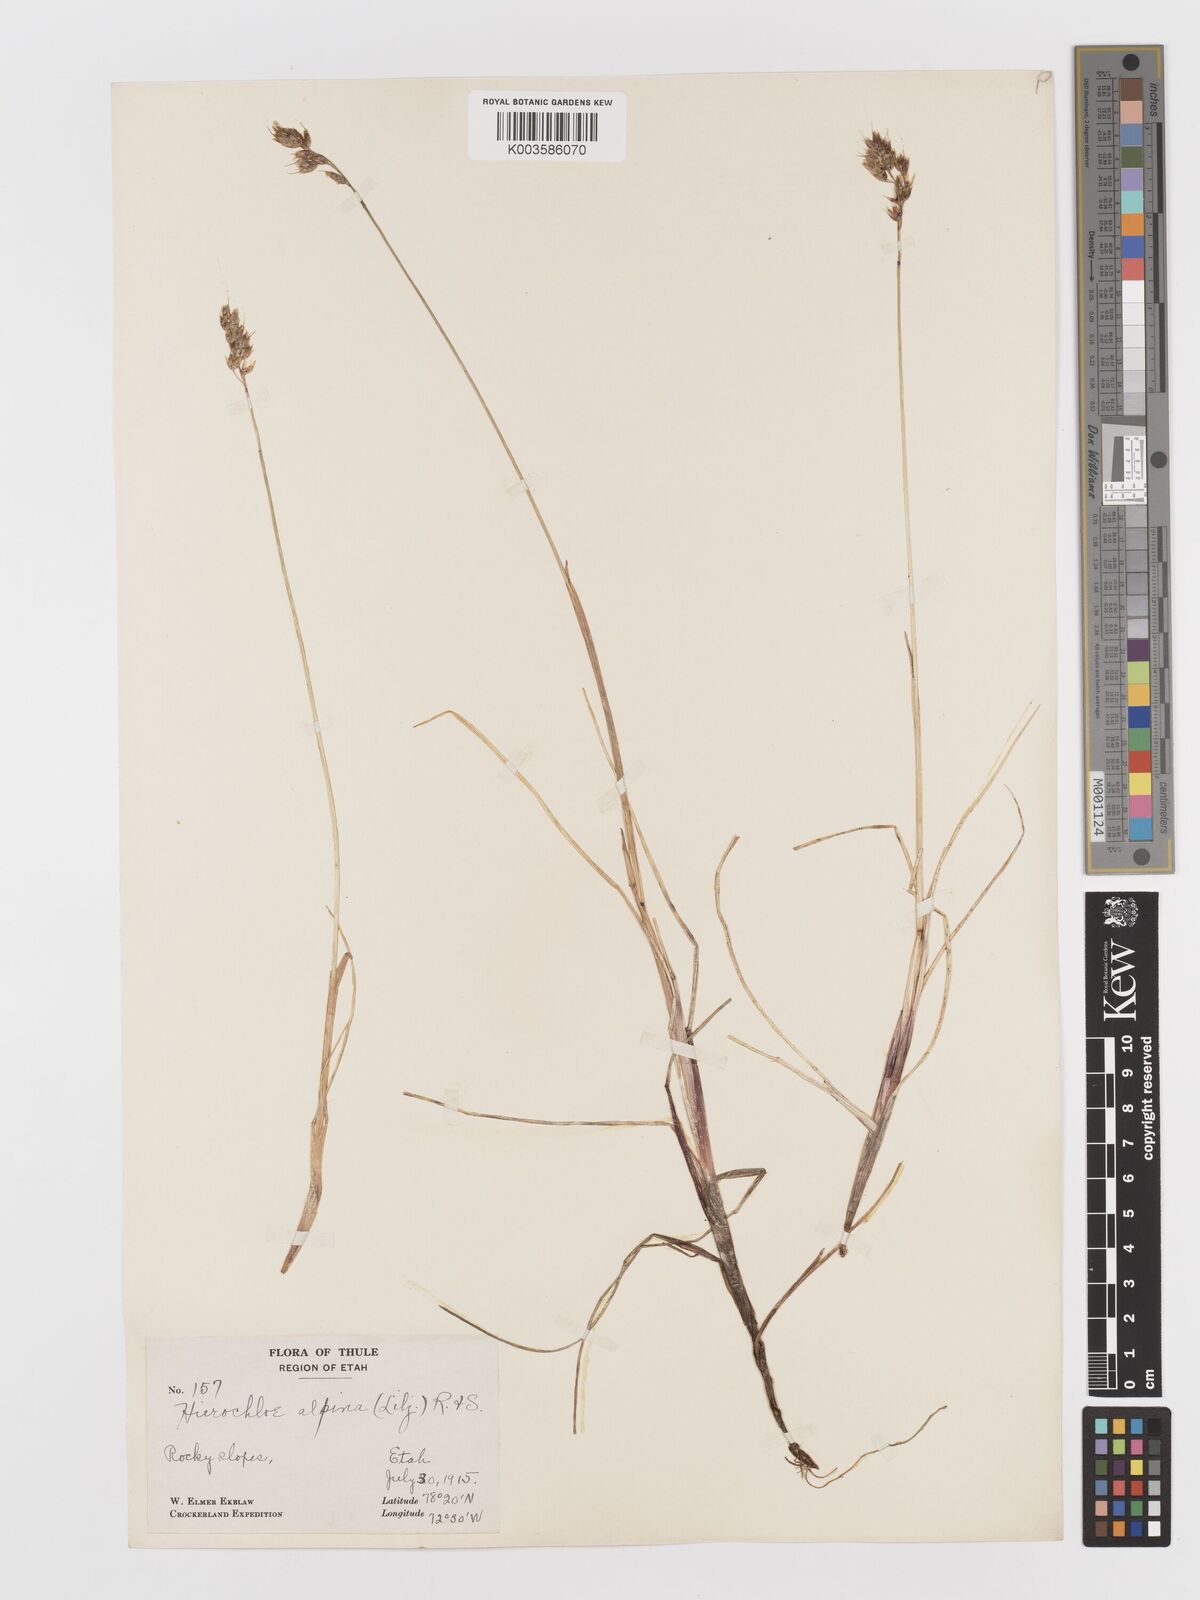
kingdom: Plantae
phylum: Tracheophyta
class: Liliopsida
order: Poales
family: Poaceae
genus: Anthoxanthum
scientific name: Anthoxanthum monticola
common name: Alpine sweetgrass
